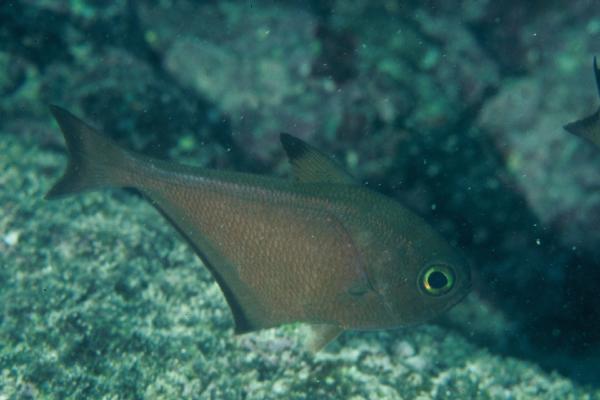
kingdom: Animalia
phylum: Chordata
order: Perciformes
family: Pempheridae
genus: Pempheris
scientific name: Pempheris
